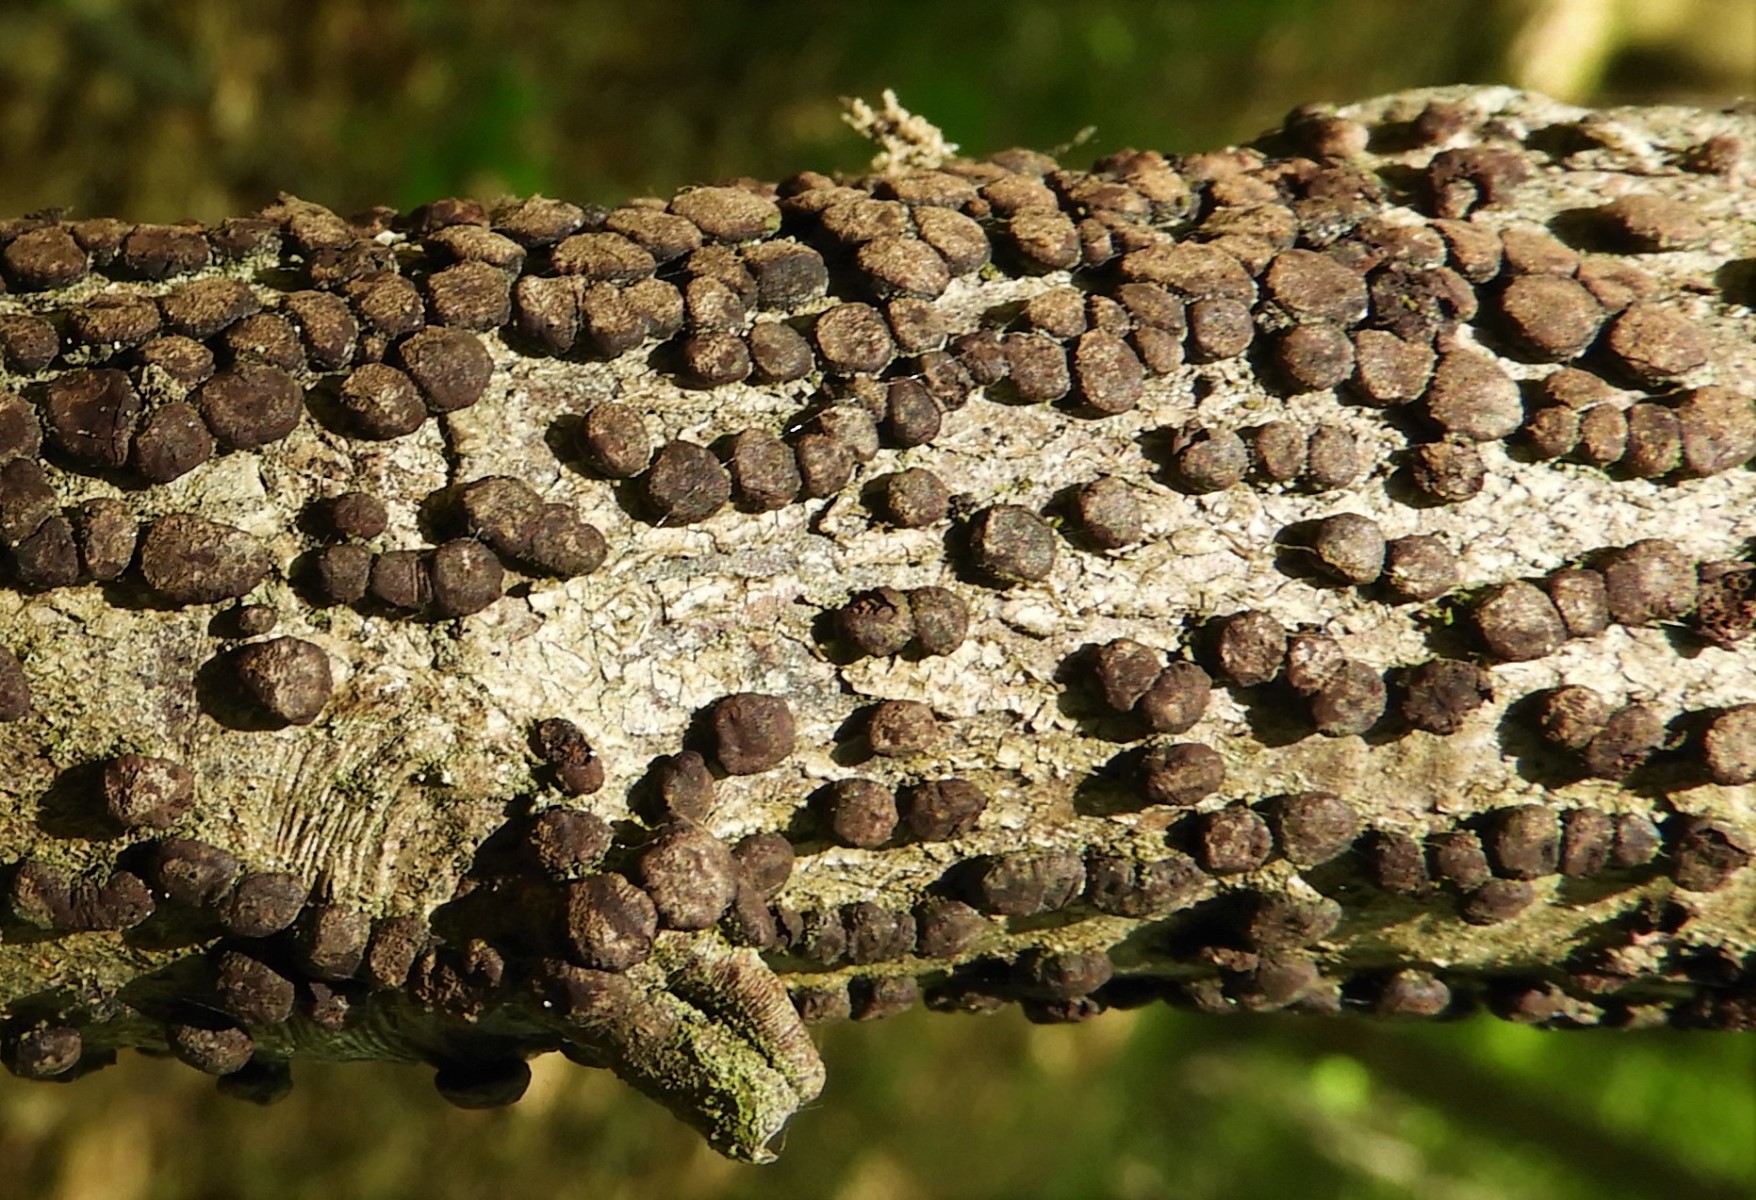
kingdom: Fungi
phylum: Ascomycota
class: Sordariomycetes
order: Xylariales
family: Hypoxylaceae
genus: Hypoxylon
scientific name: Hypoxylon
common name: kulbær
